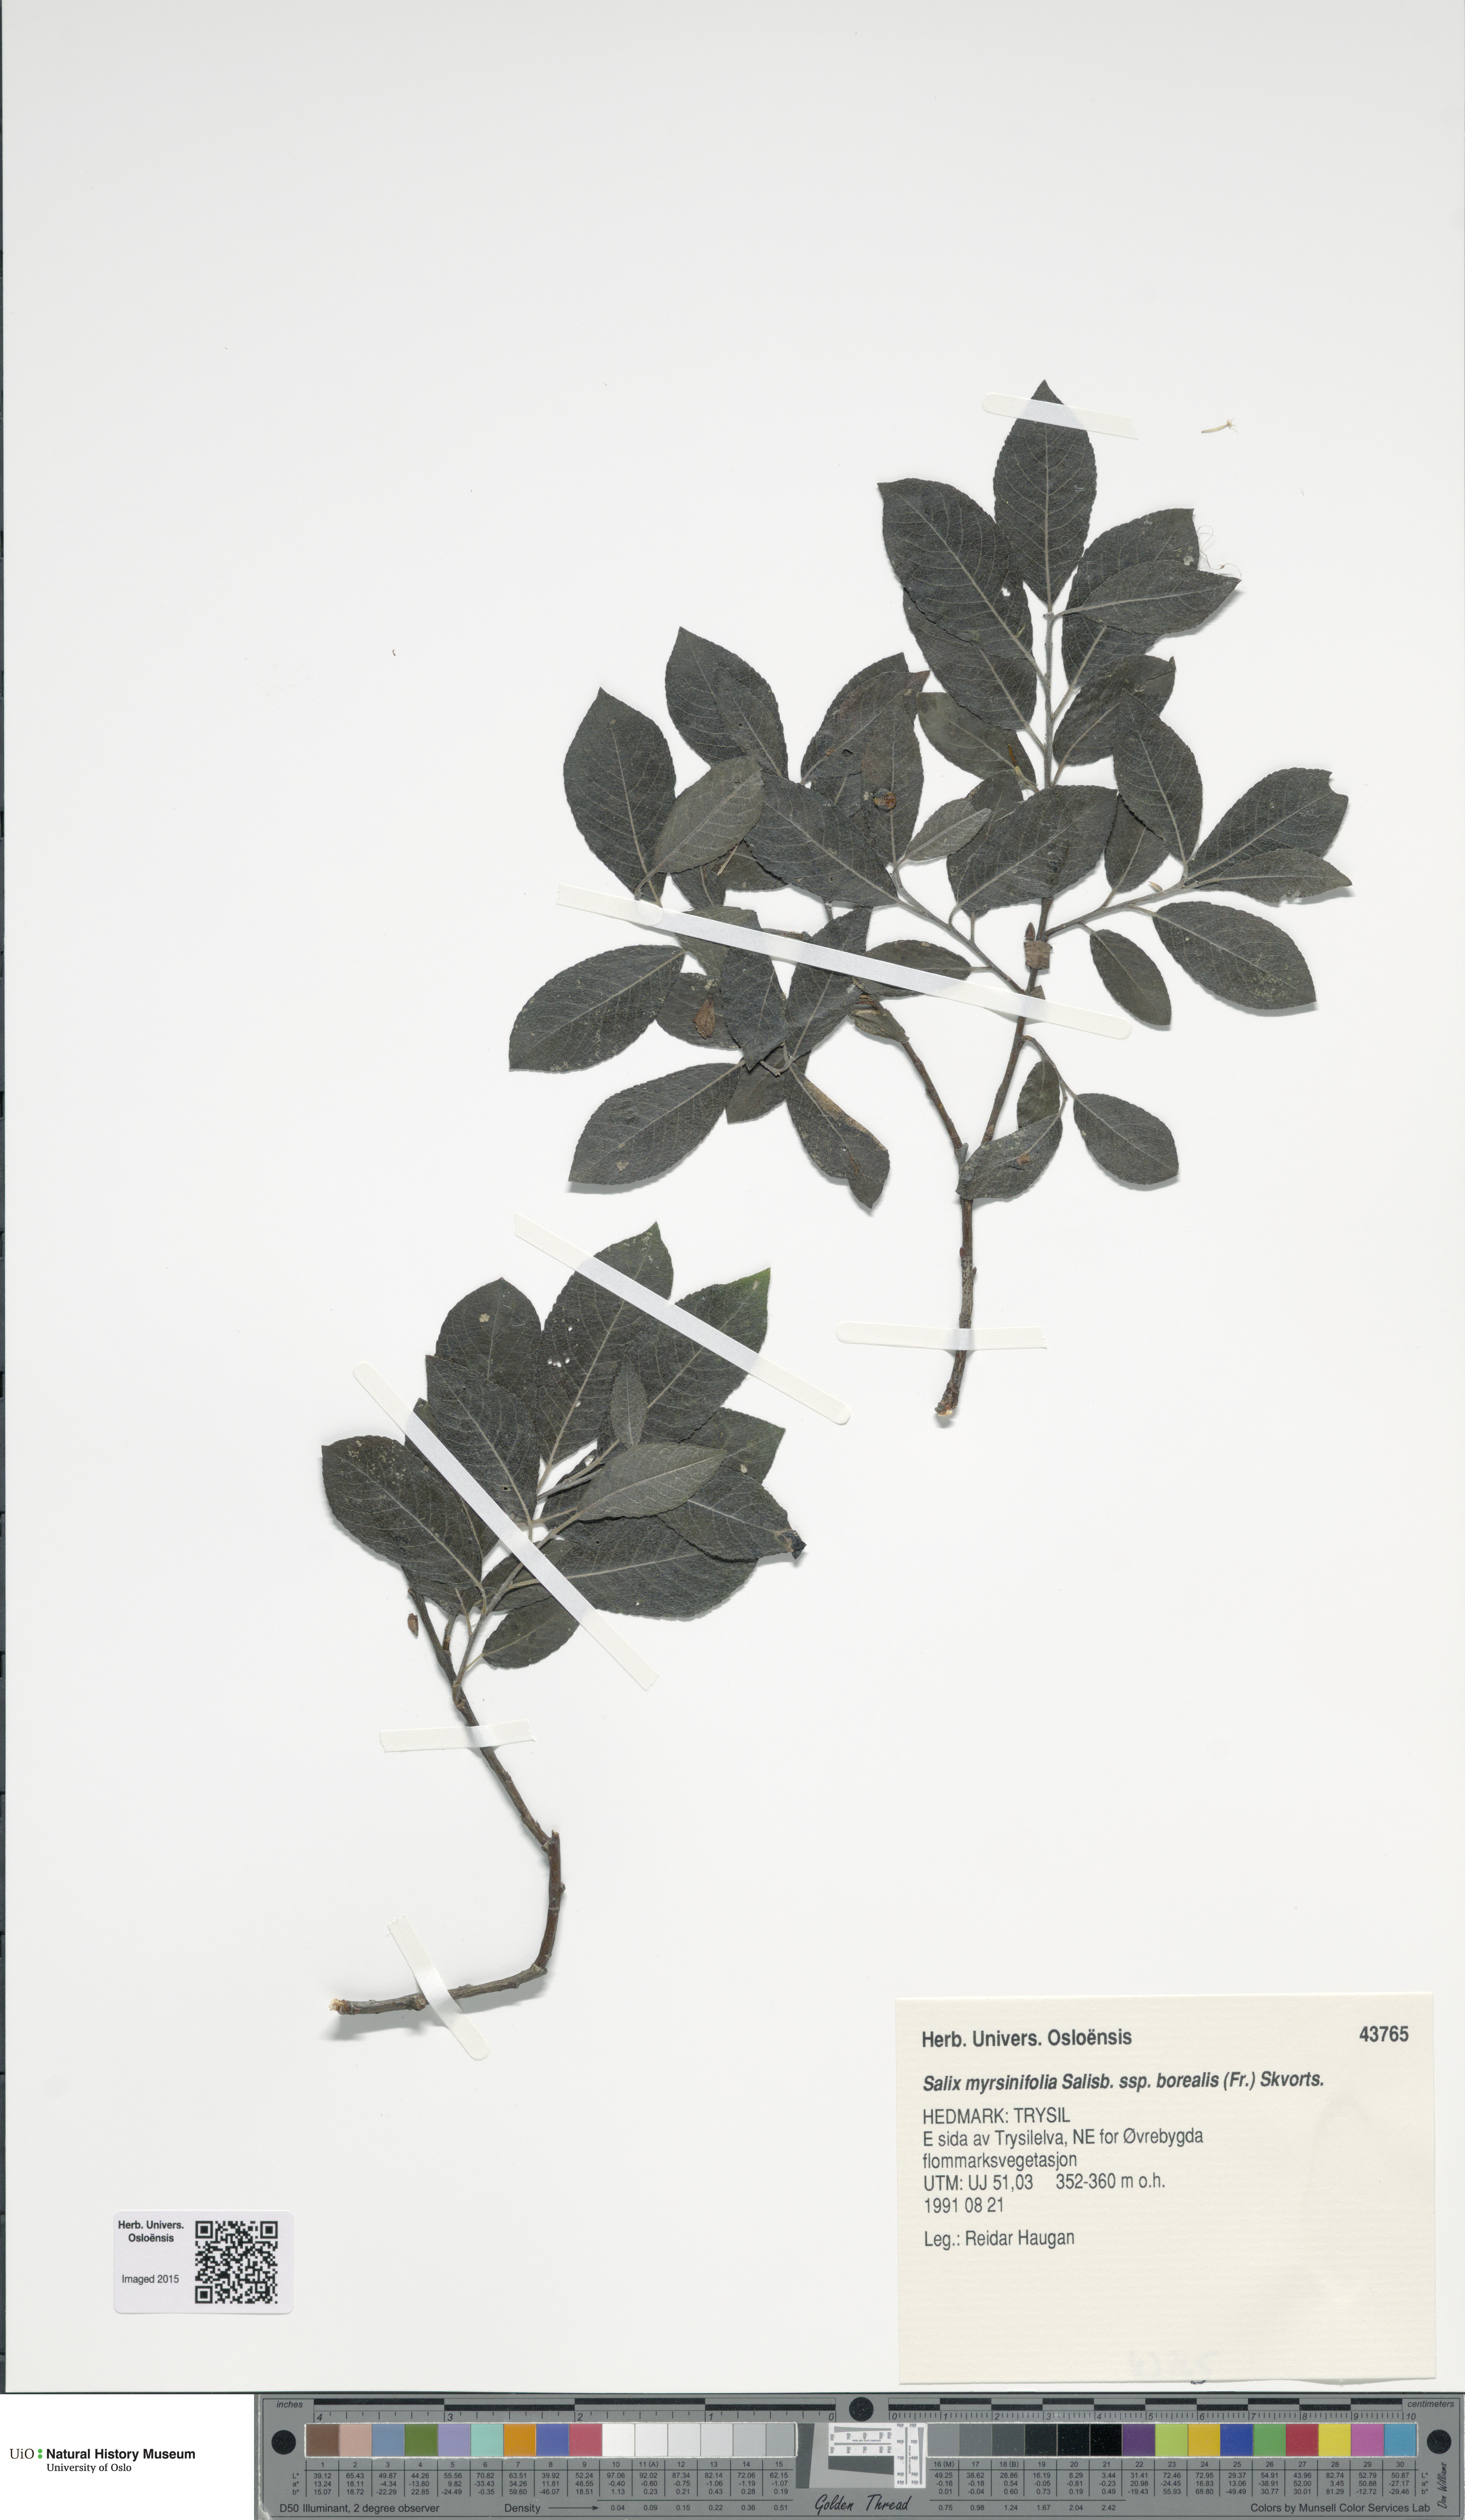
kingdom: Plantae
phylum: Tracheophyta
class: Magnoliopsida
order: Malpighiales
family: Salicaceae
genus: Salix
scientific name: Salix myrsinifolia
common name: Dark-leaved willow
